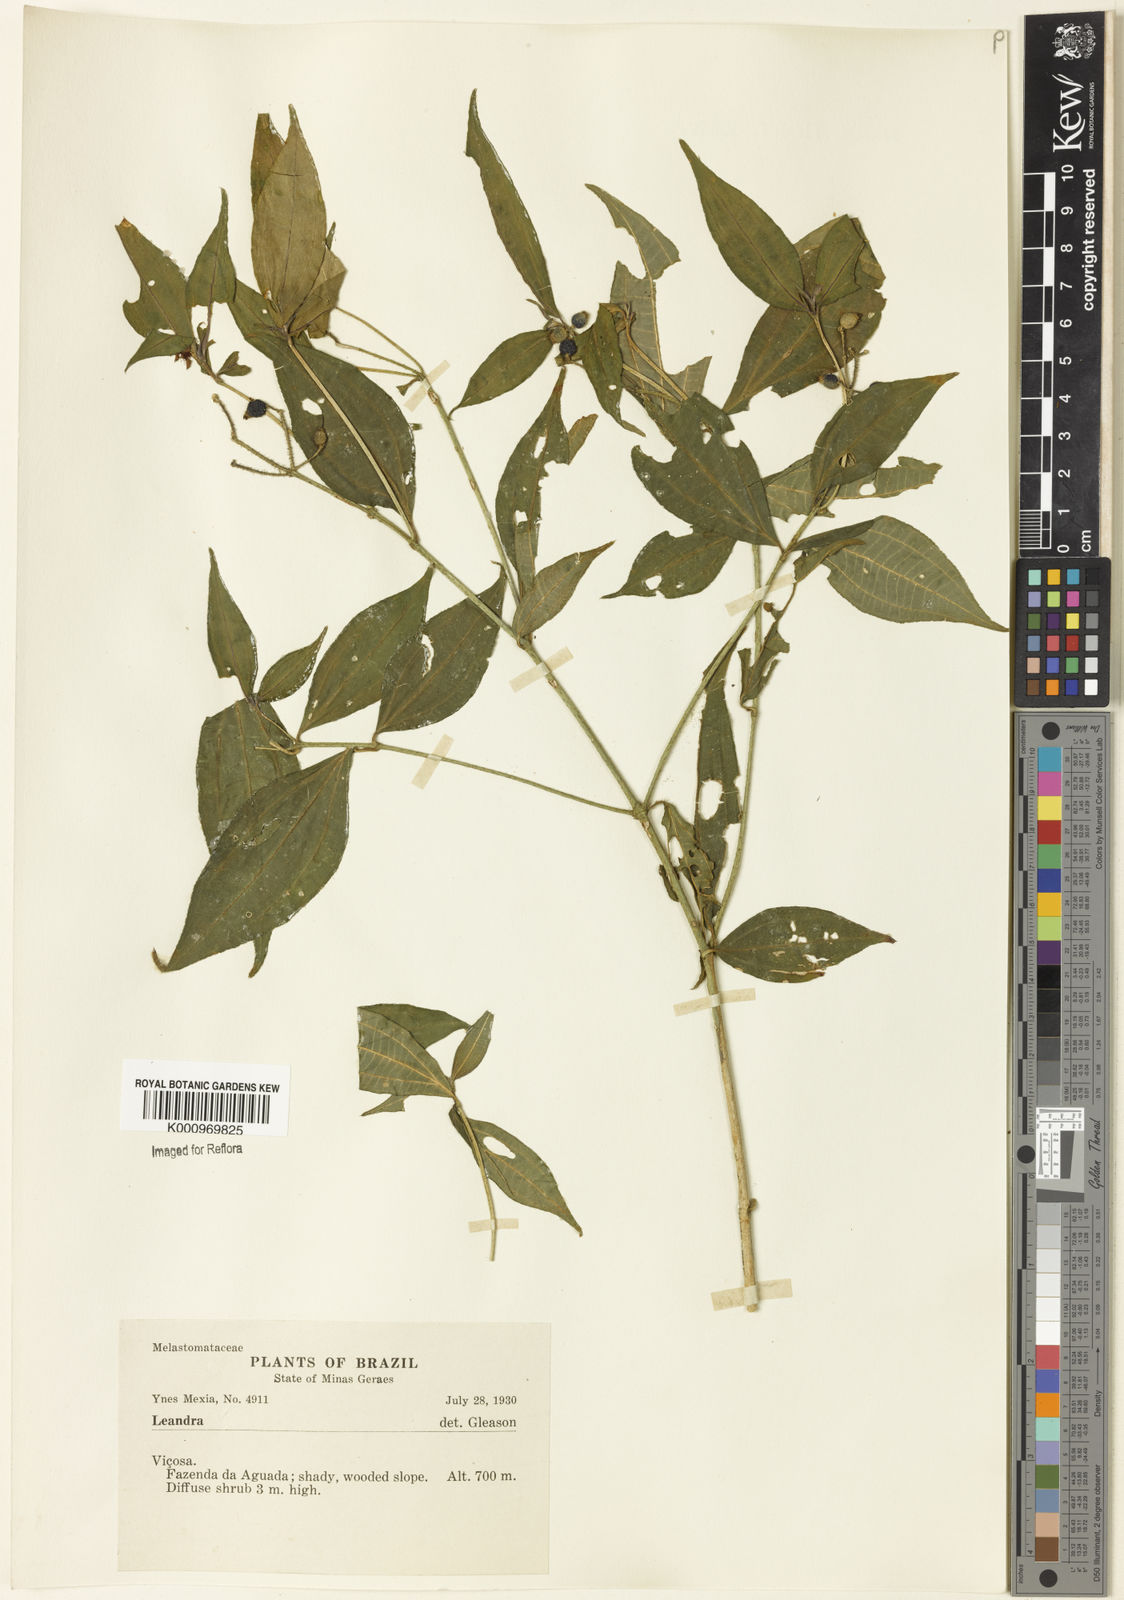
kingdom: Plantae
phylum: Tracheophyta
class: Magnoliopsida
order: Myrtales
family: Melastomataceae
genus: Miconia
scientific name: Miconia
